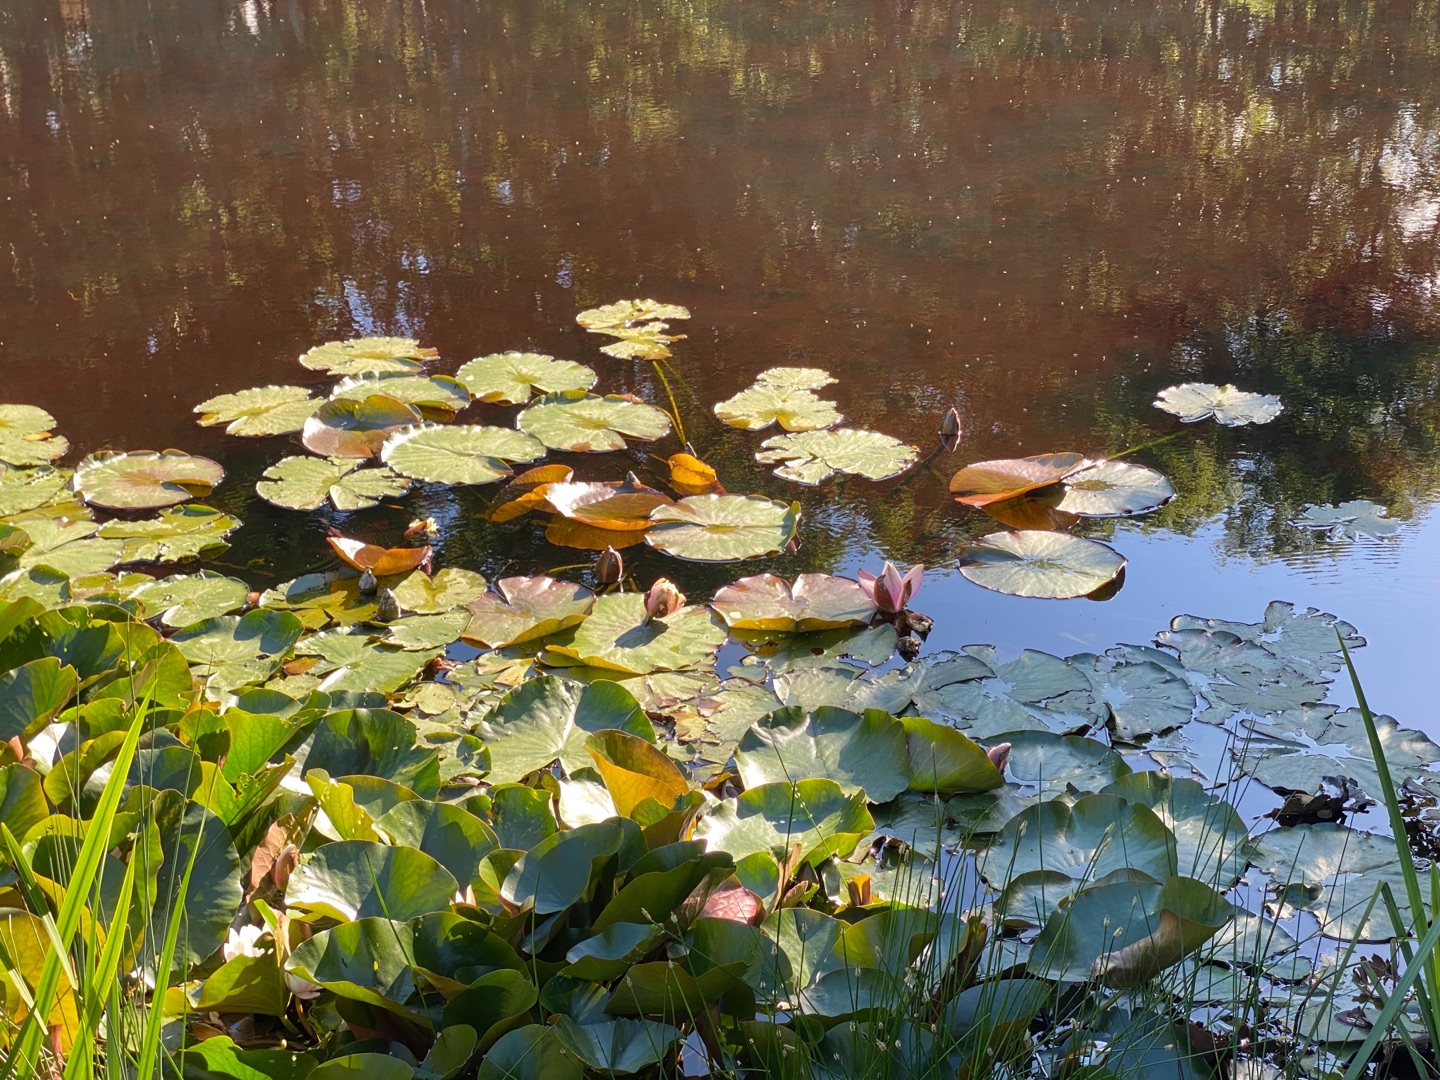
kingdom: Plantae
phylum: Tracheophyta
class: Magnoliopsida
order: Nymphaeales
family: Nymphaeaceae
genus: Nymphaea
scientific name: Nymphaea alba
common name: Hvid åkande
